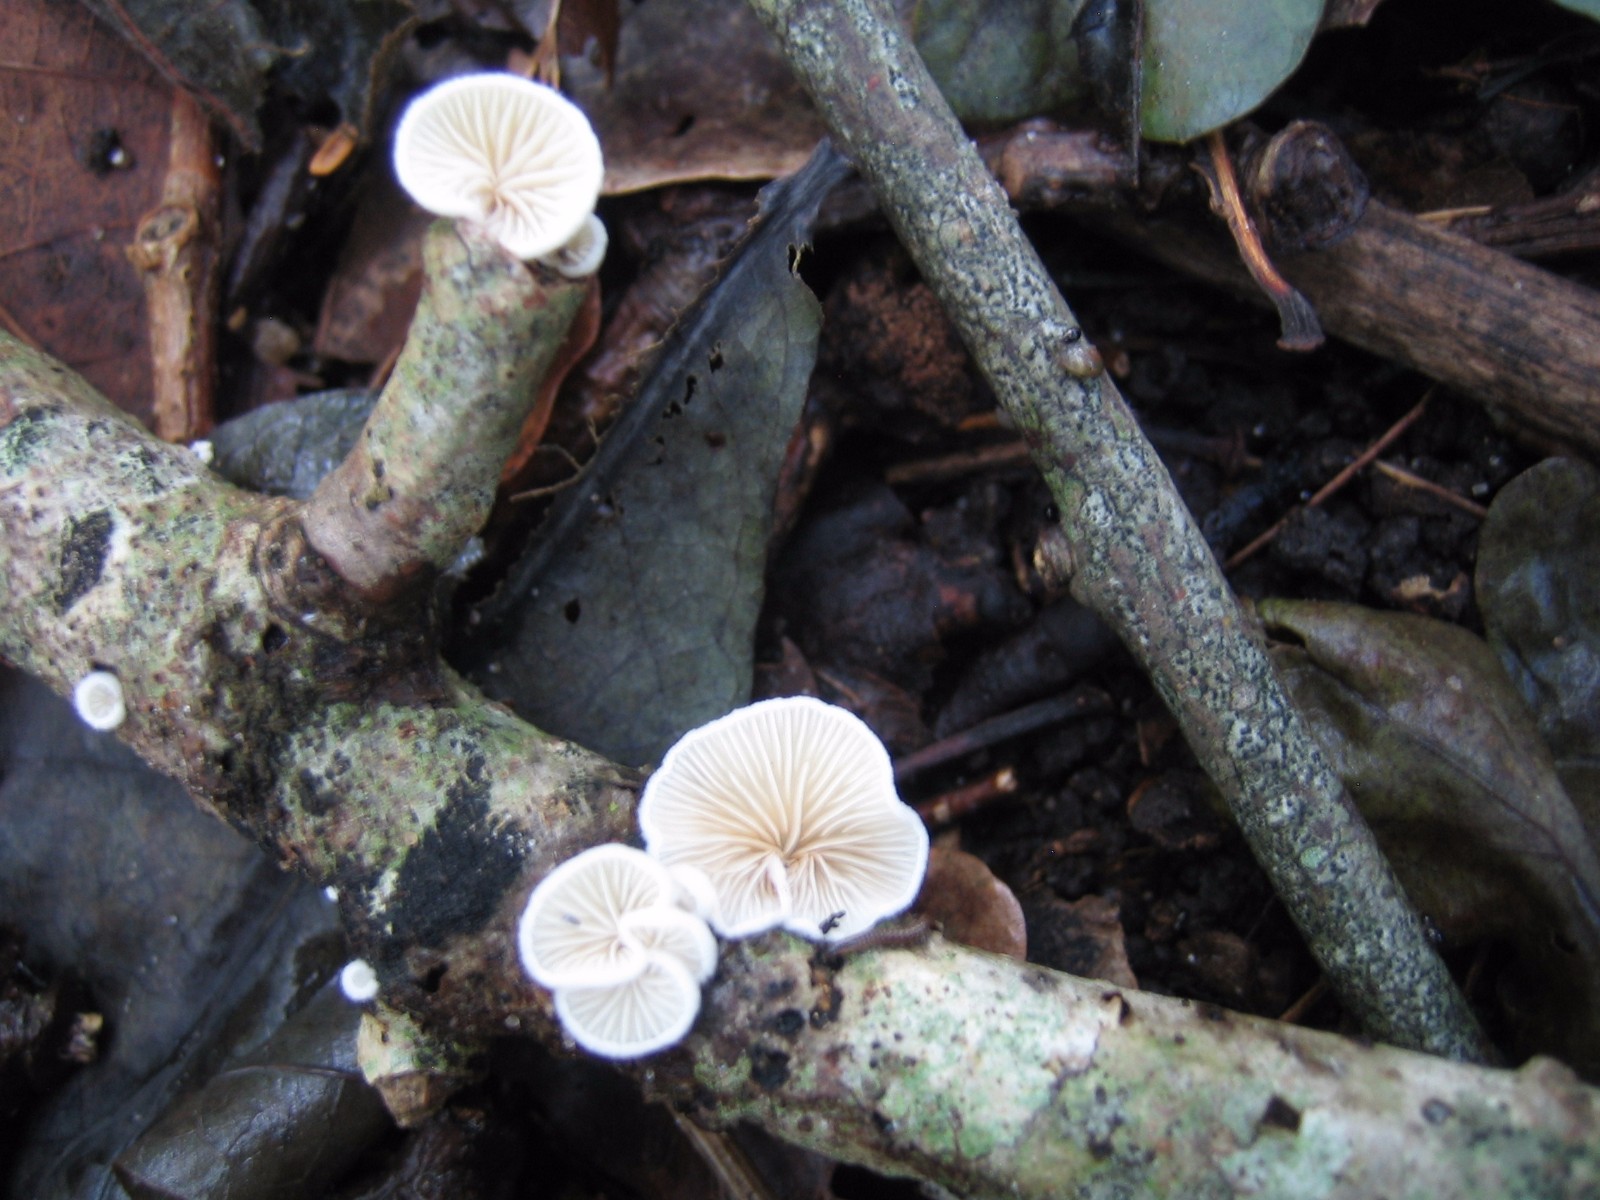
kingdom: Fungi
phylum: Basidiomycota
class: Agaricomycetes
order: Agaricales
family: Crepidotaceae
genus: Crepidotus
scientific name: Crepidotus
